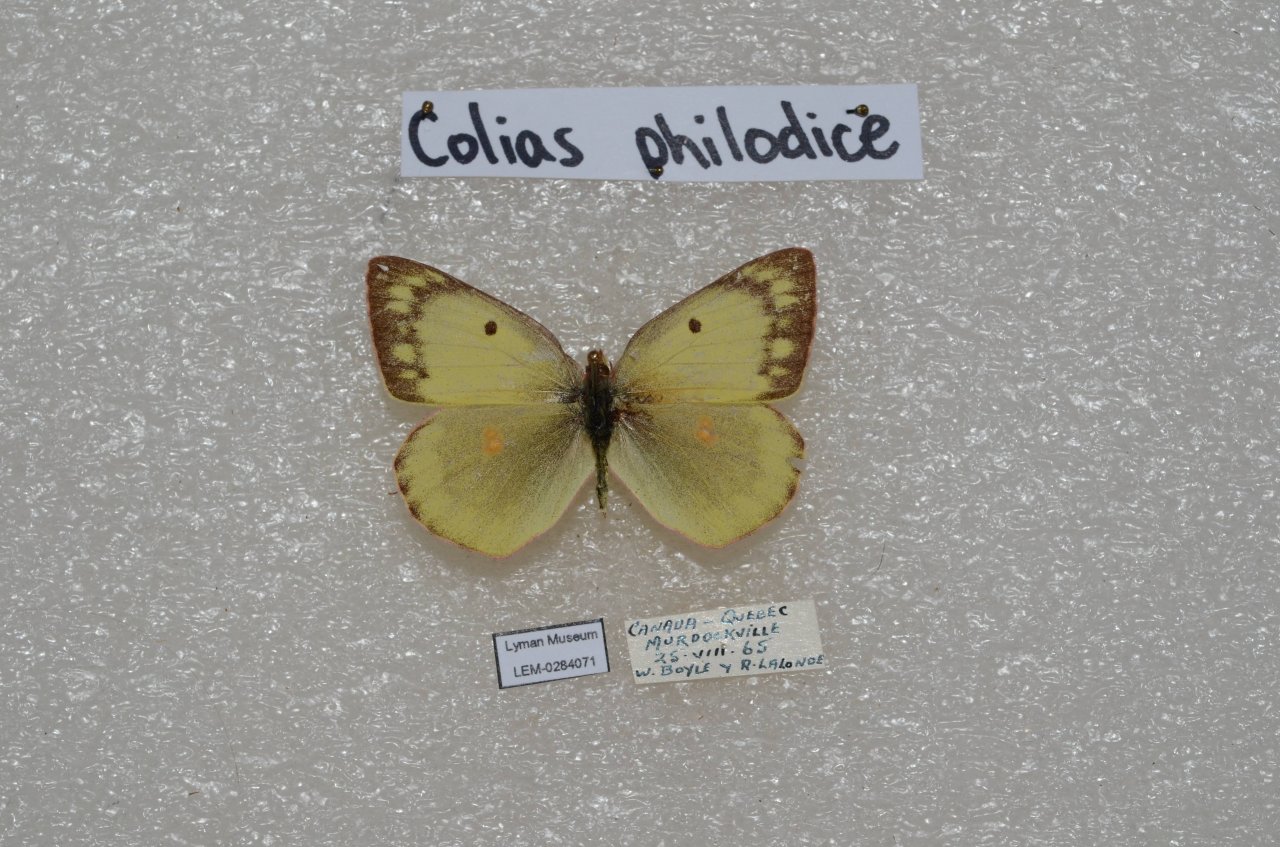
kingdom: Animalia
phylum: Arthropoda
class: Insecta
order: Lepidoptera
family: Pieridae
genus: Colias
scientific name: Colias philodice
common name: Clouded Sulphur
